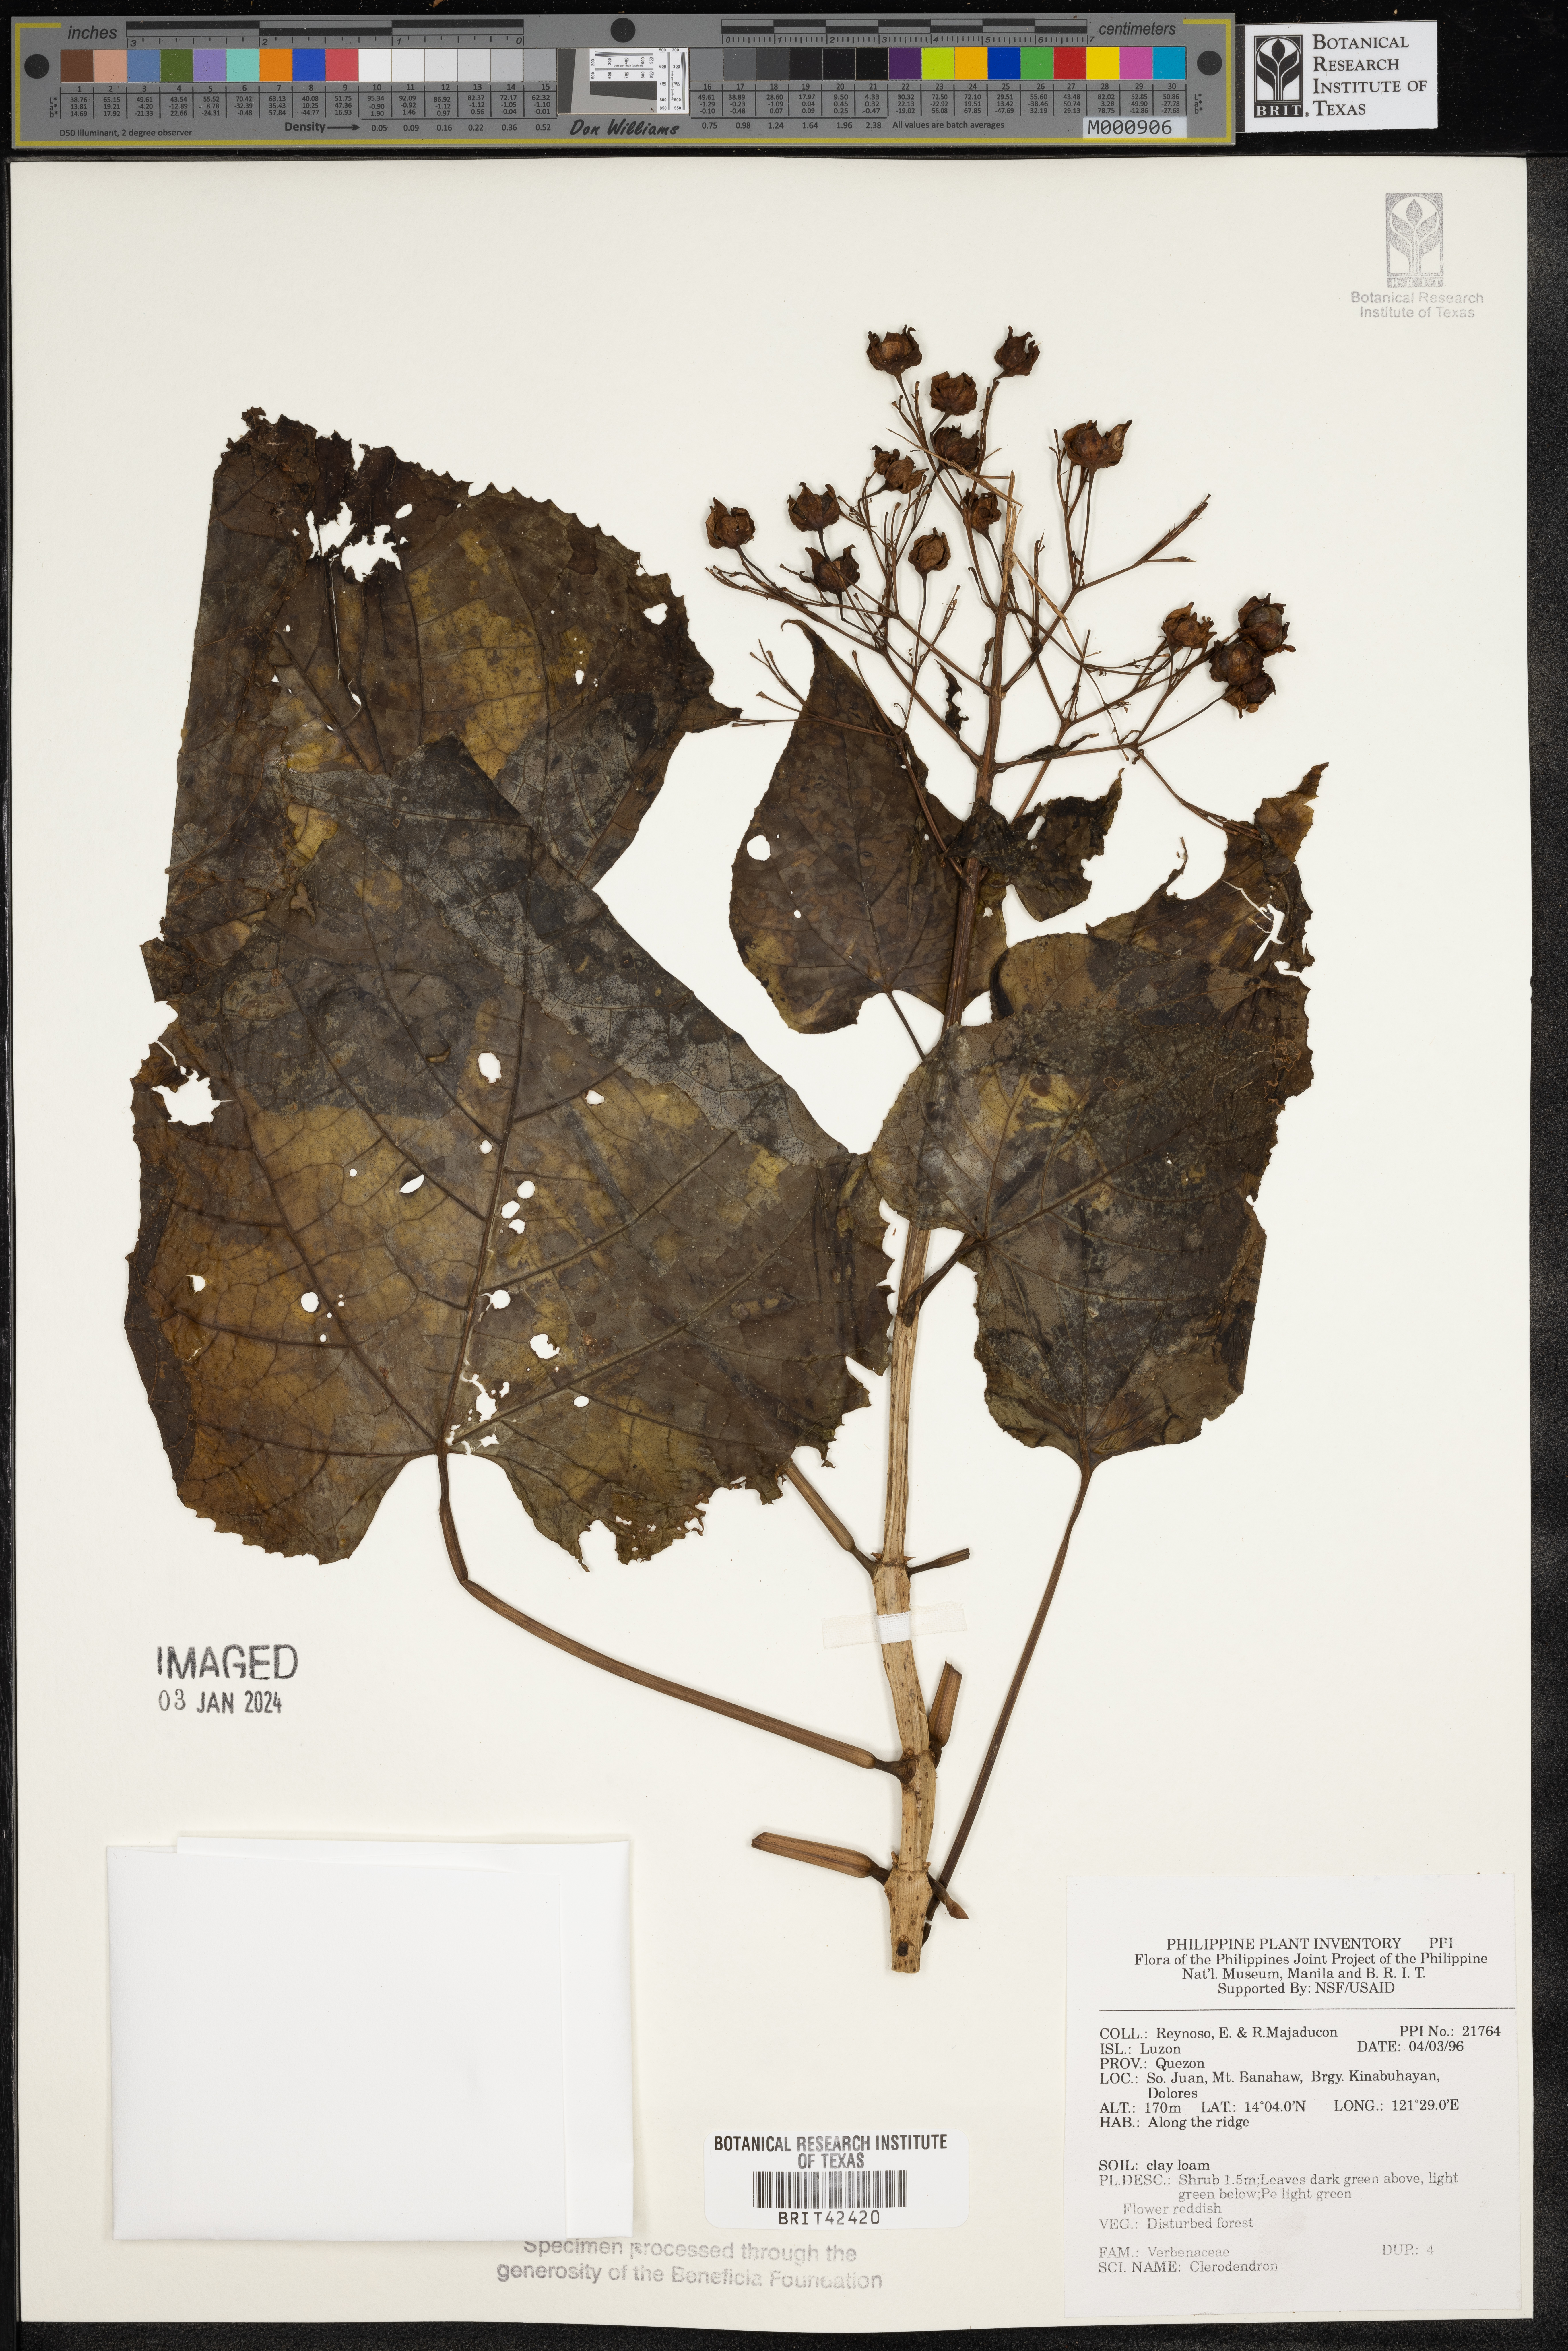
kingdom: Plantae
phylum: Tracheophyta
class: Magnoliopsida
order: Lamiales
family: Lamiaceae
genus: Clerodendrum
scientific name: Clerodendrum
